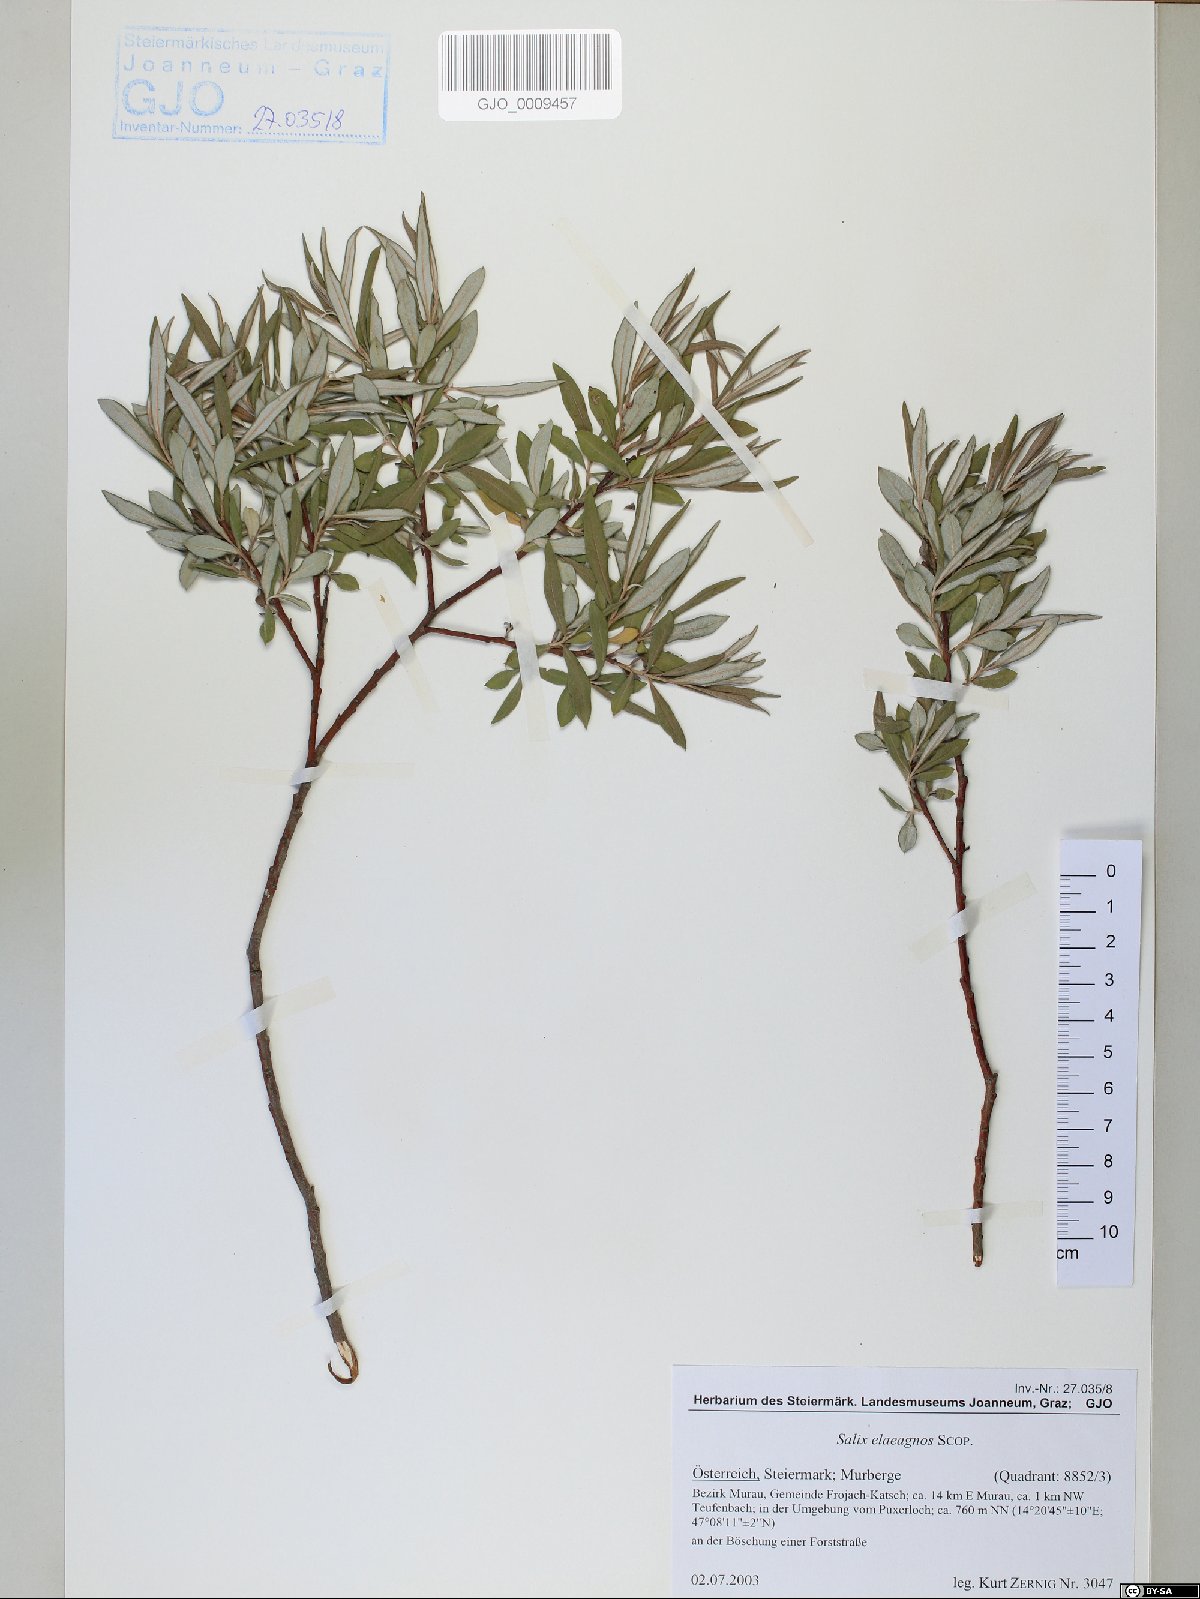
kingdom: Plantae
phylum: Tracheophyta
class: Magnoliopsida
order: Malpighiales
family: Salicaceae
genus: Salix
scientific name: Salix eleagnos
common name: Elaeagnus willow
